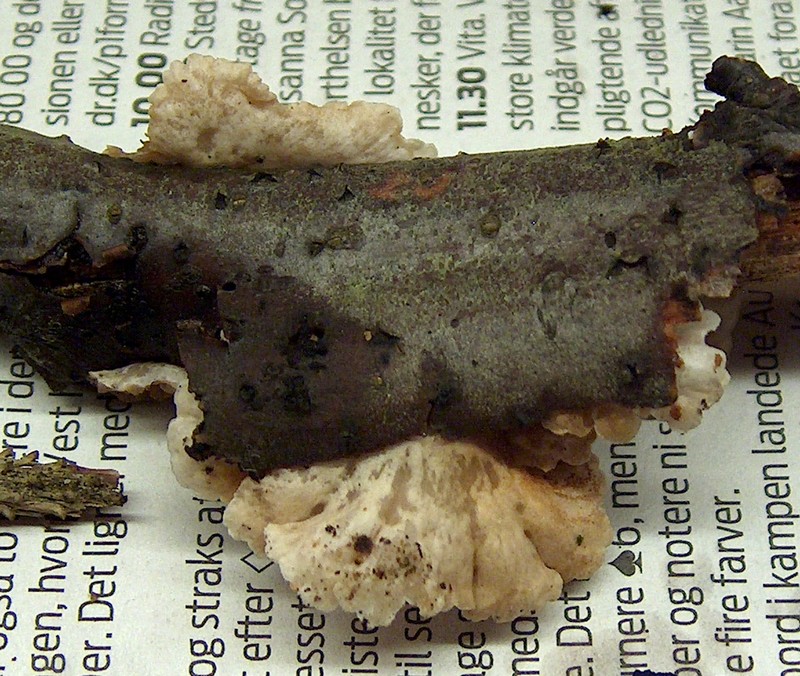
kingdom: Fungi
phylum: Basidiomycota
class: Agaricomycetes
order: Agaricales
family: Crepidotaceae
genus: Crepidotus
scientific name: Crepidotus variabilis
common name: forskelligformet muslingesvamp
